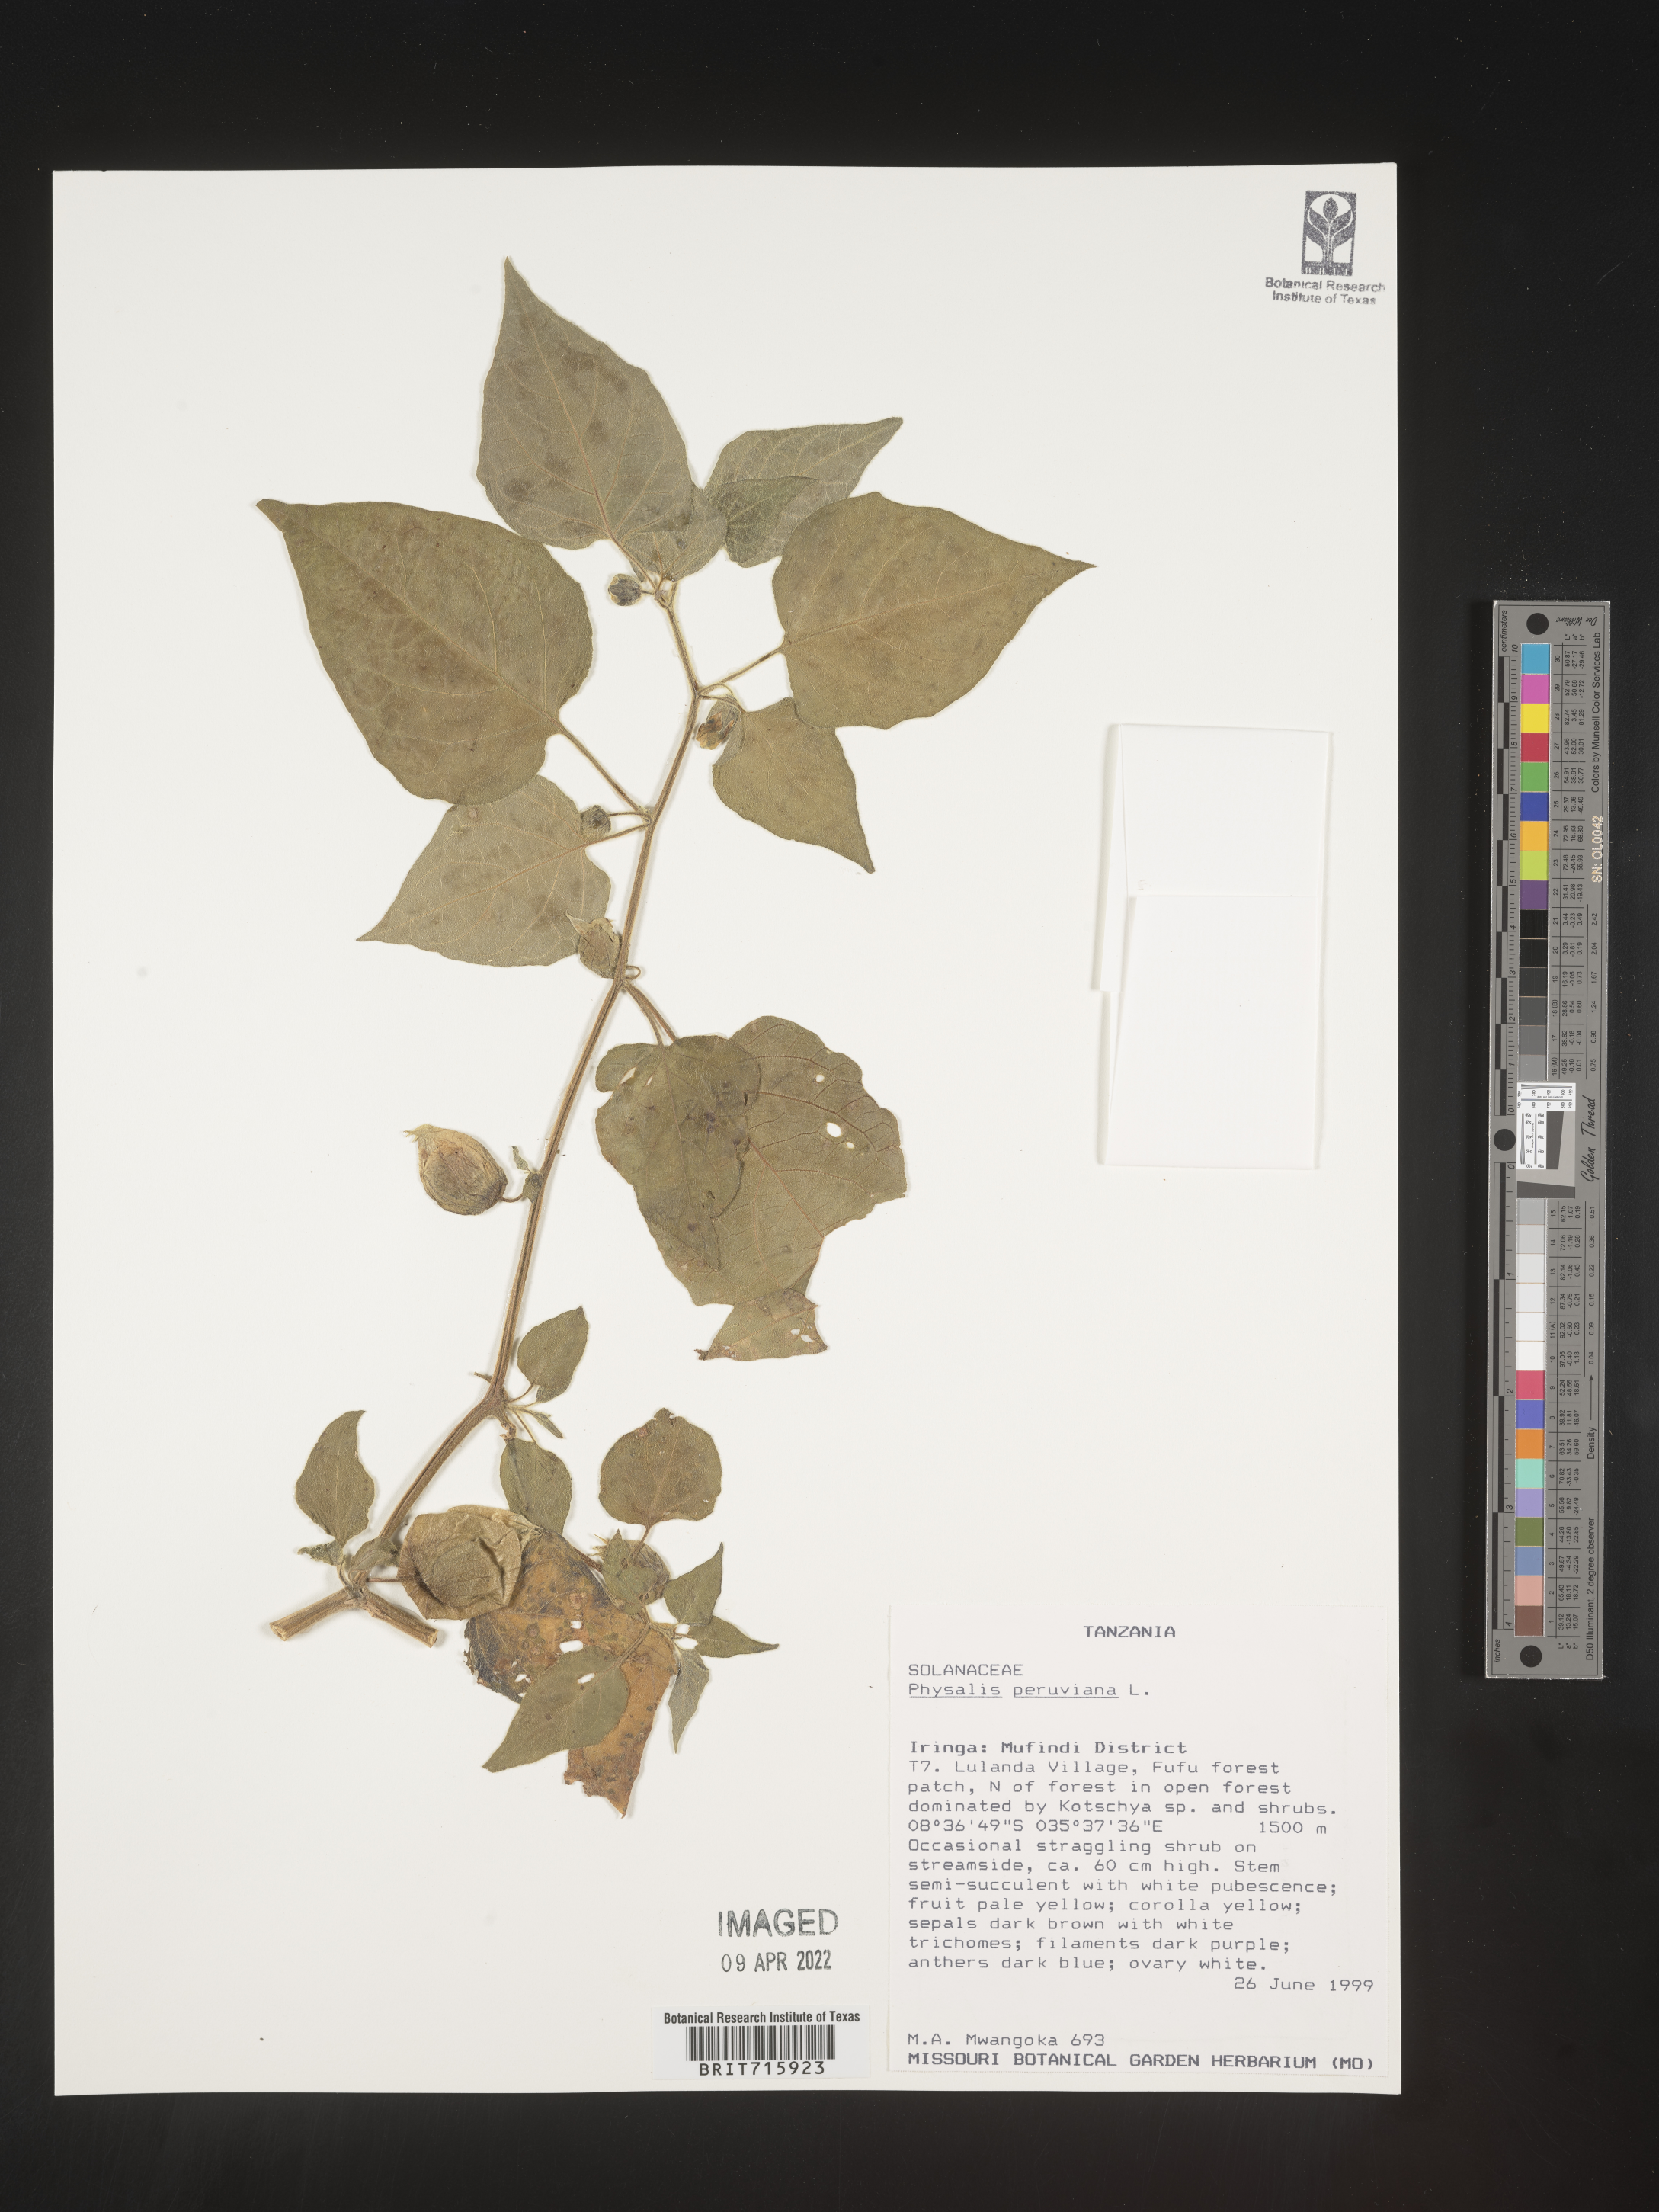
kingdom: Plantae
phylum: Tracheophyta
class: Magnoliopsida
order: Solanales
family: Solanaceae
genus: Physalis
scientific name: Physalis
